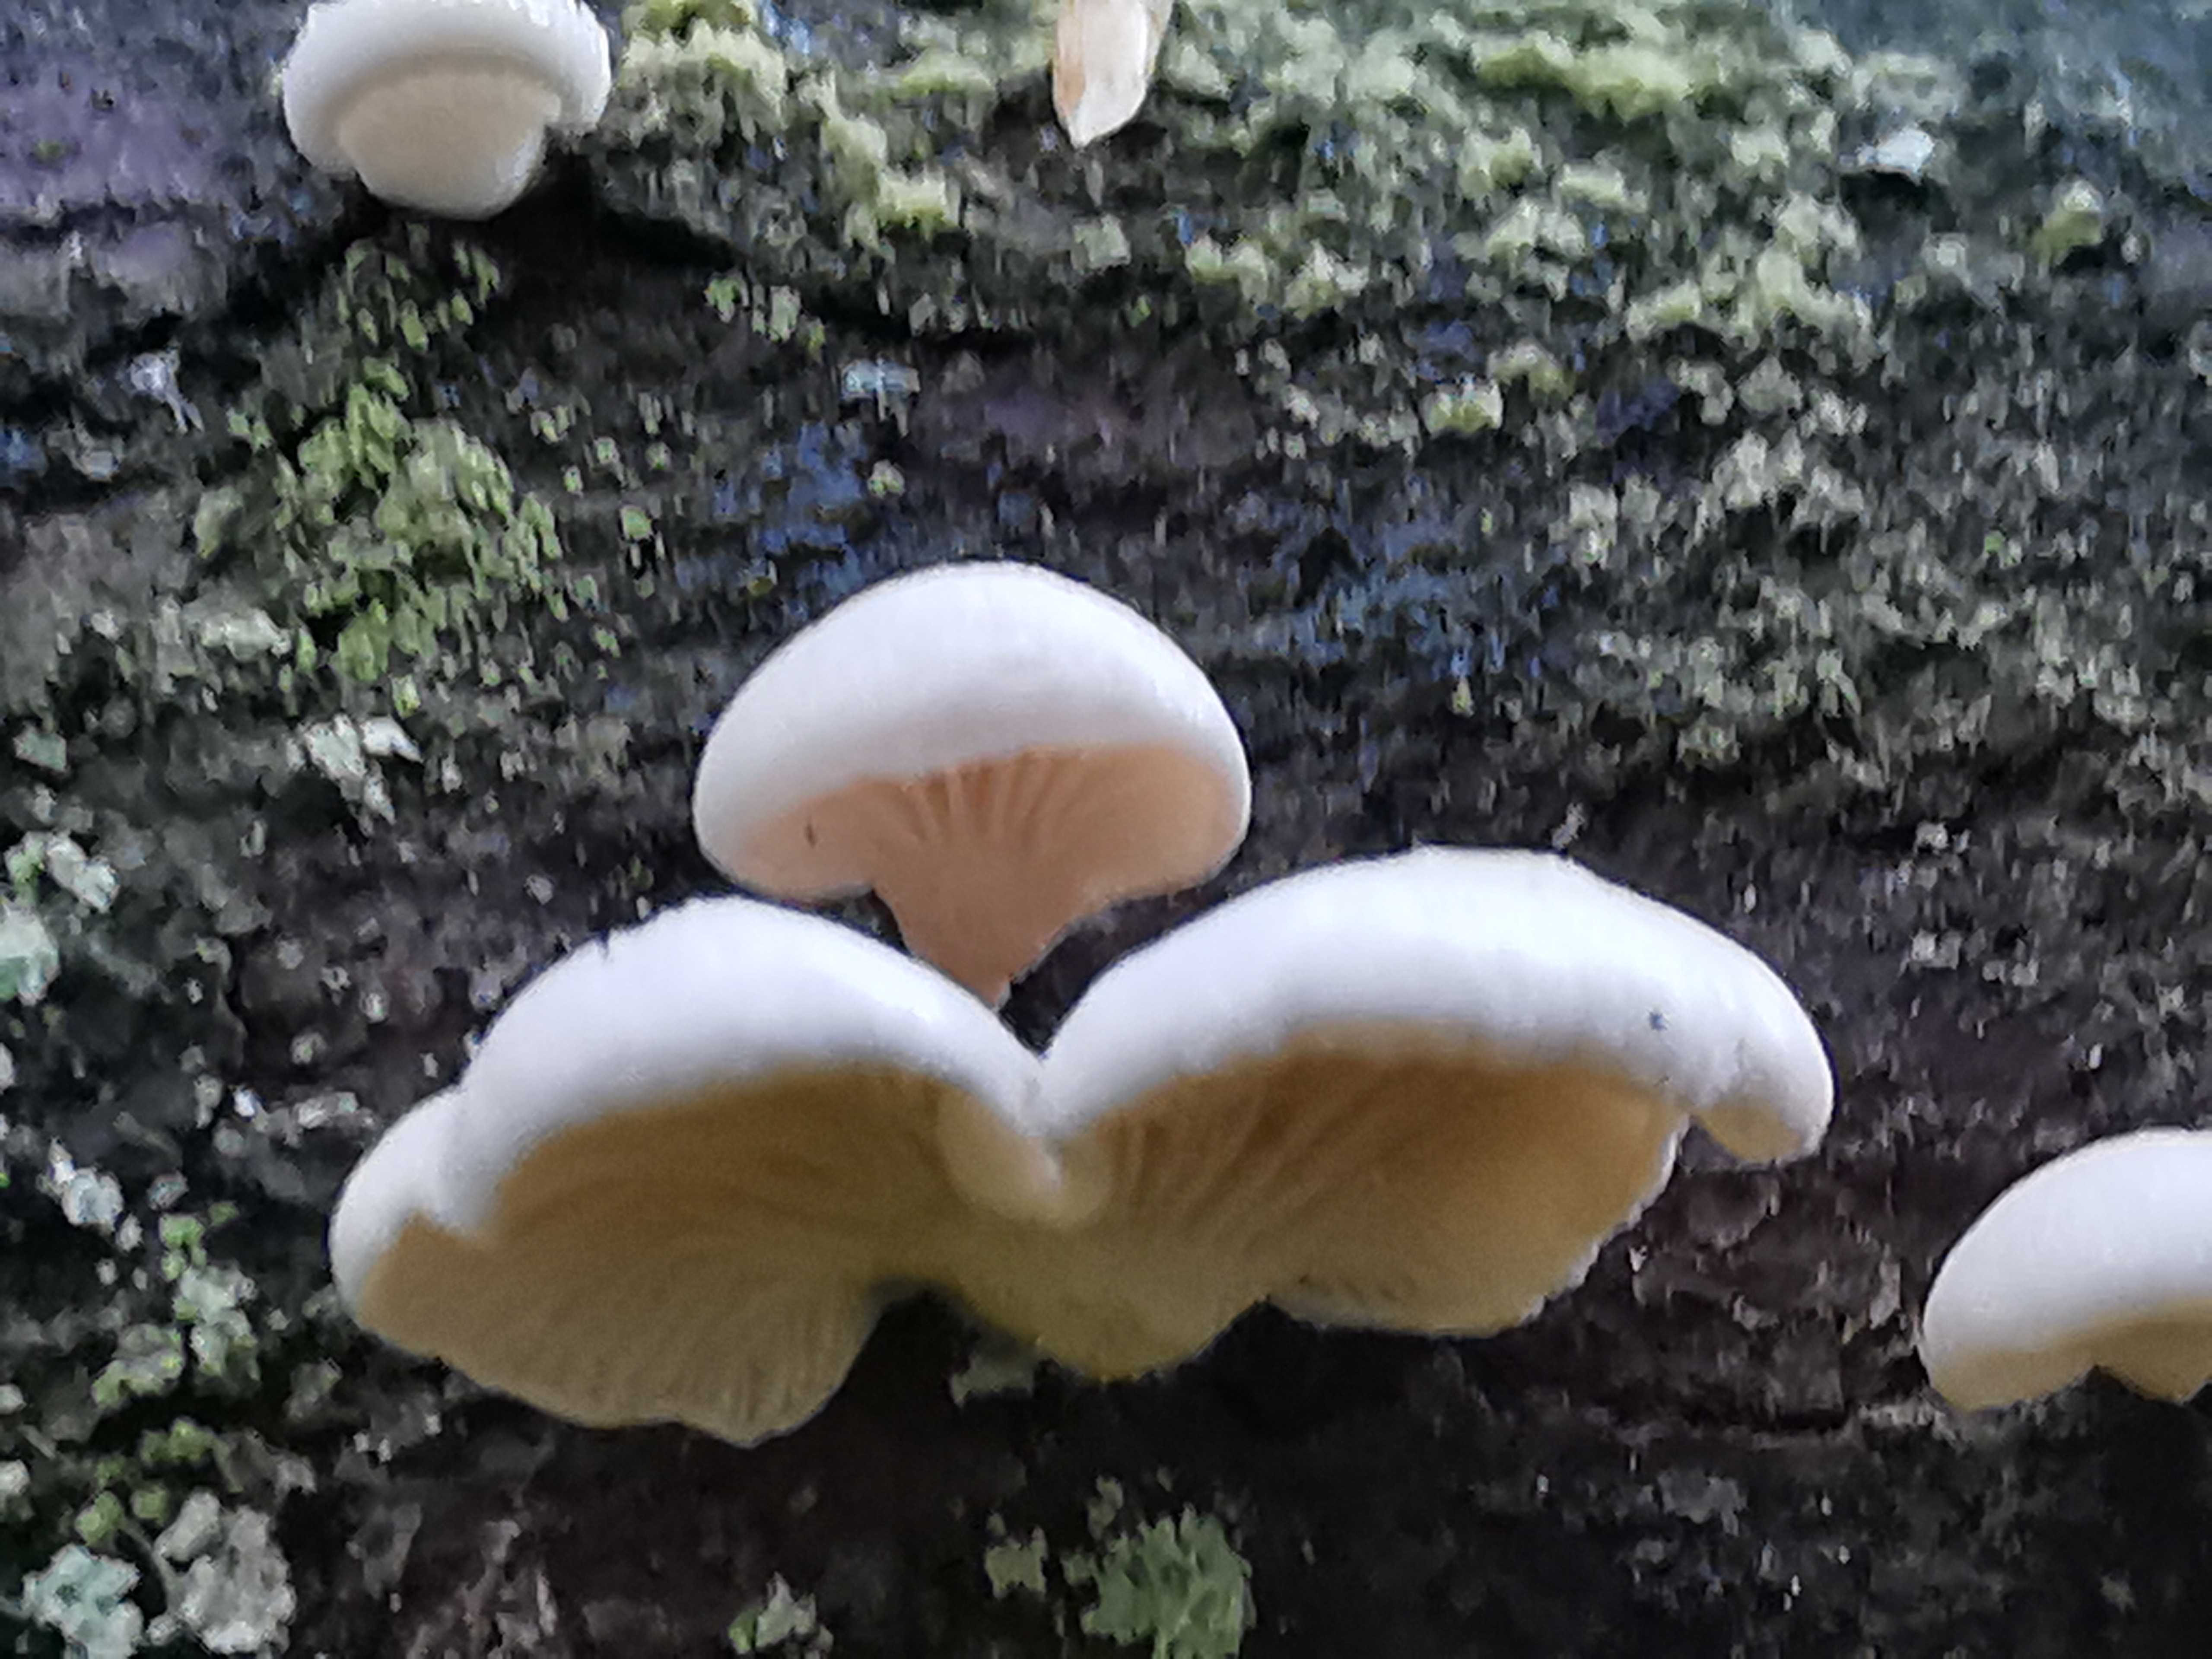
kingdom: Fungi
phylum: Basidiomycota
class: Agaricomycetes
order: Agaricales
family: Mycenaceae
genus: Panellus
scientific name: Panellus mitis
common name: mild epaulethat
